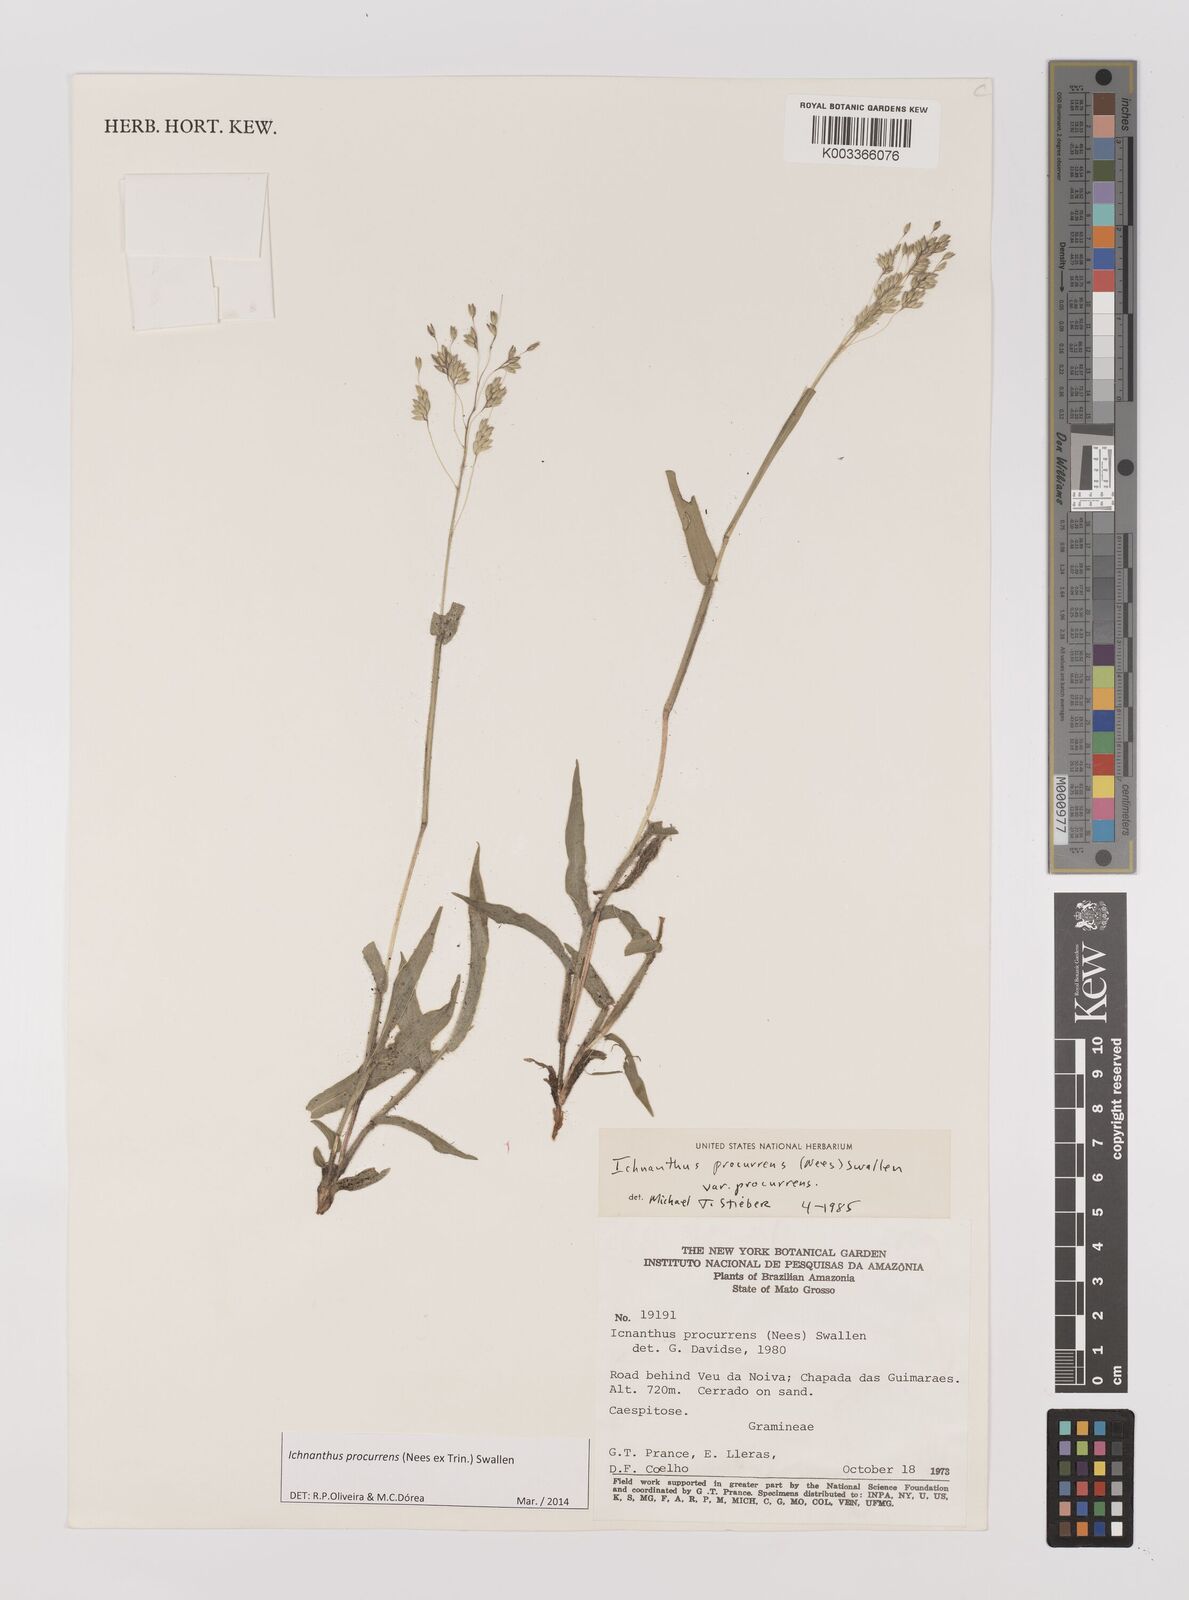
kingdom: Plantae
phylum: Tracheophyta
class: Liliopsida
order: Poales
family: Poaceae
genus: Oedochloa
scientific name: Oedochloa procurrens
